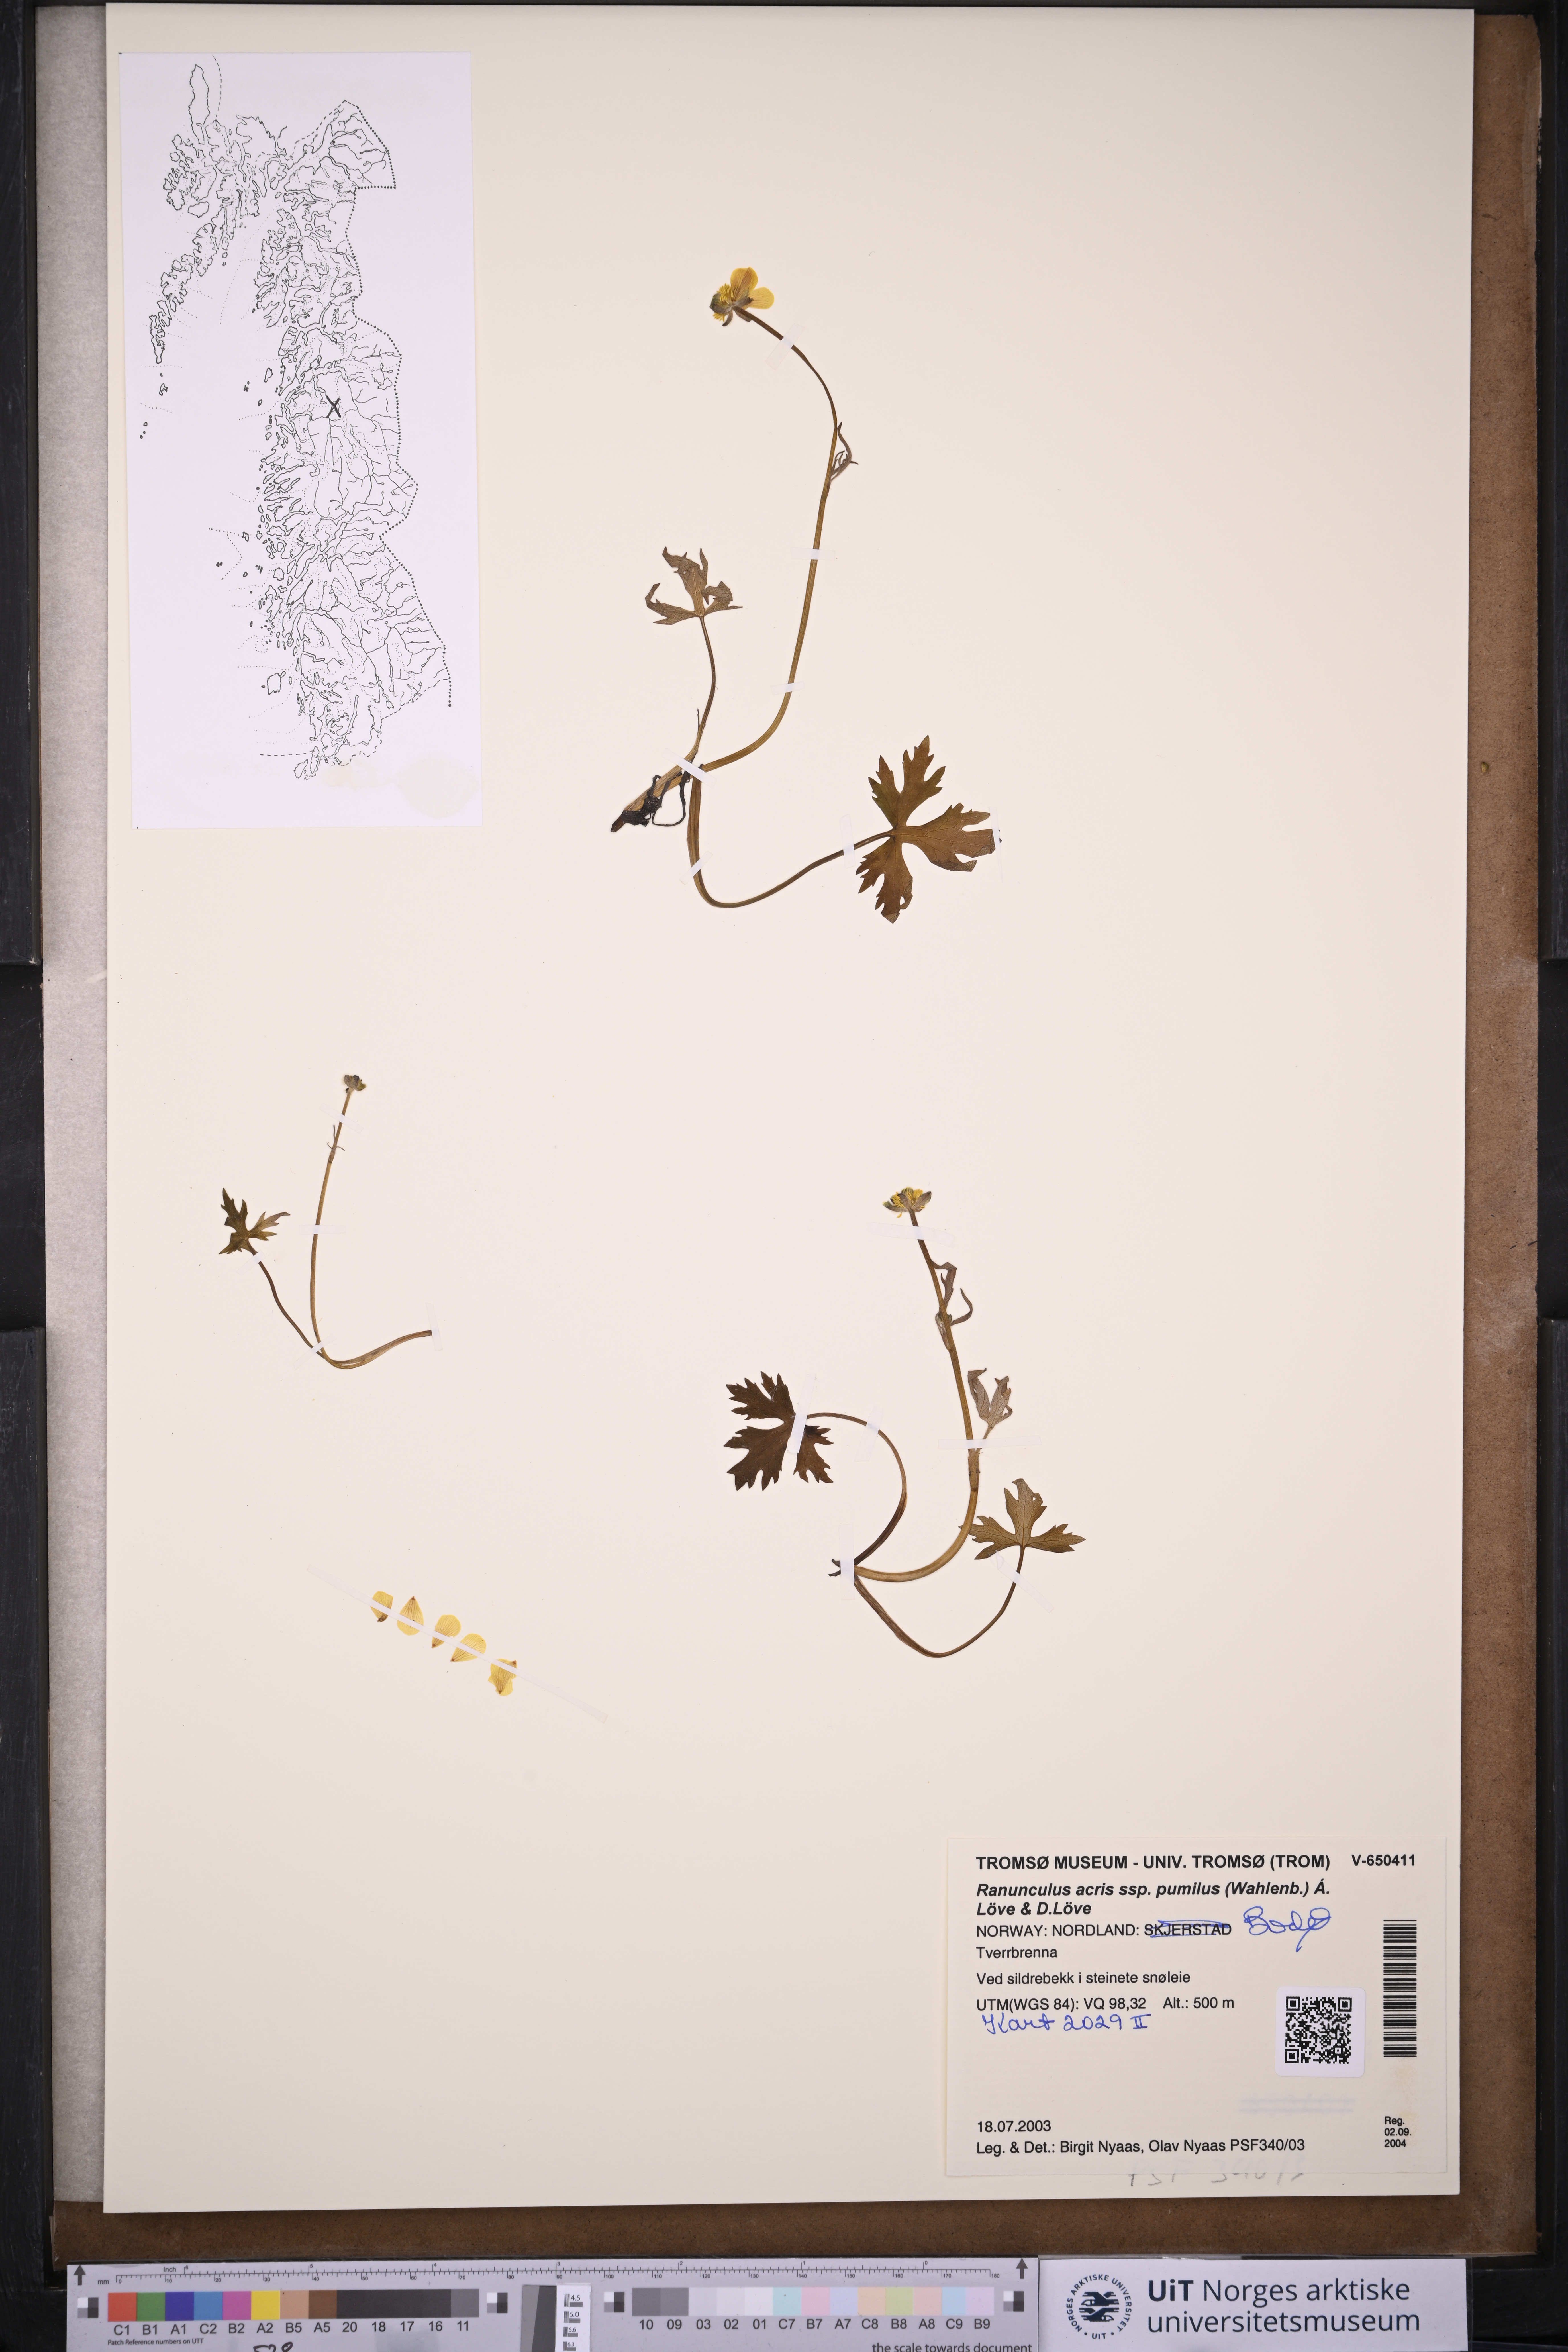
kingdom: Plantae
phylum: Tracheophyta
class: Magnoliopsida
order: Ranunculales
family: Ranunculaceae
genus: Ranunculus
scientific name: Ranunculus
